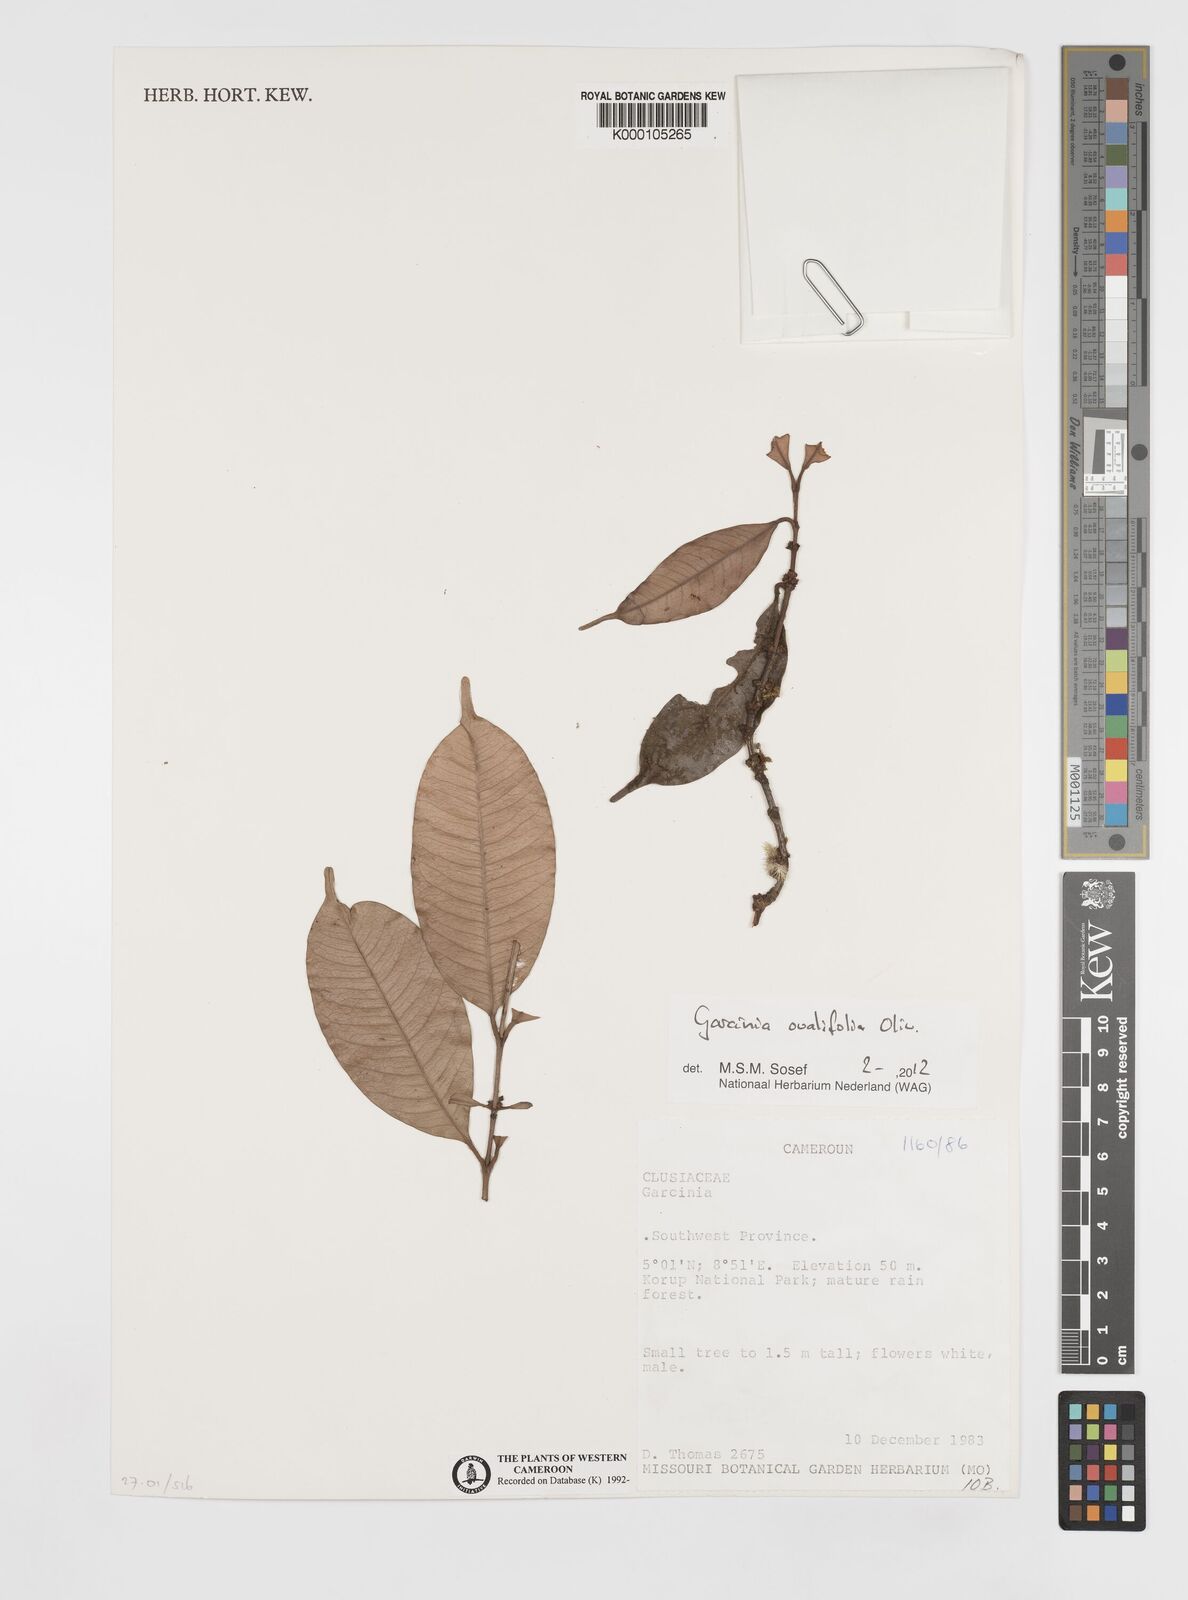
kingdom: Plantae
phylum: Tracheophyta
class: Magnoliopsida
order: Malpighiales
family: Clusiaceae
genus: Garcinia
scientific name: Garcinia
